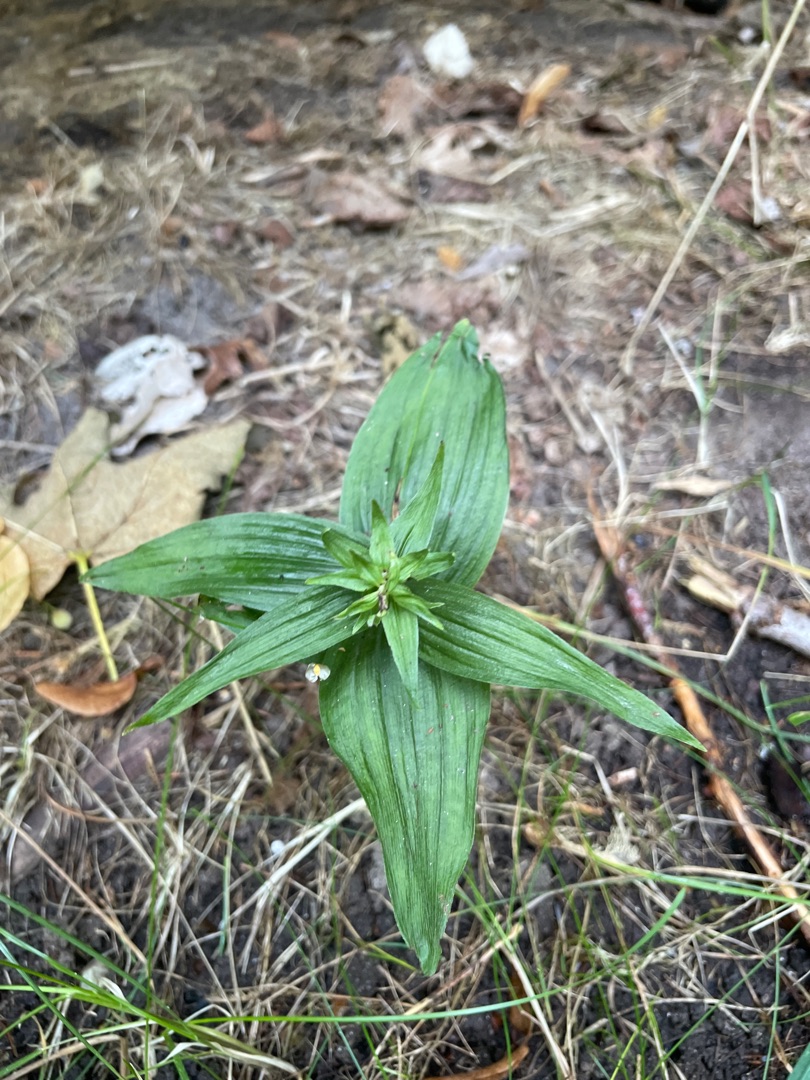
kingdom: Plantae
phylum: Tracheophyta
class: Liliopsida
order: Asparagales
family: Orchidaceae
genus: Epipactis
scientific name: Epipactis helleborine
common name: Skov-hullæbe
